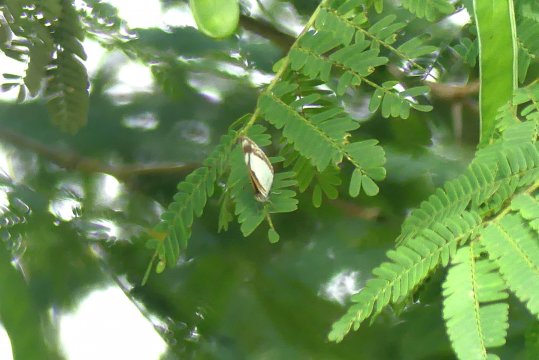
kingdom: Animalia
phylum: Arthropoda
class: Insecta
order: Lepidoptera
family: Nymphalidae
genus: Dynamine
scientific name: Dynamine agacles
